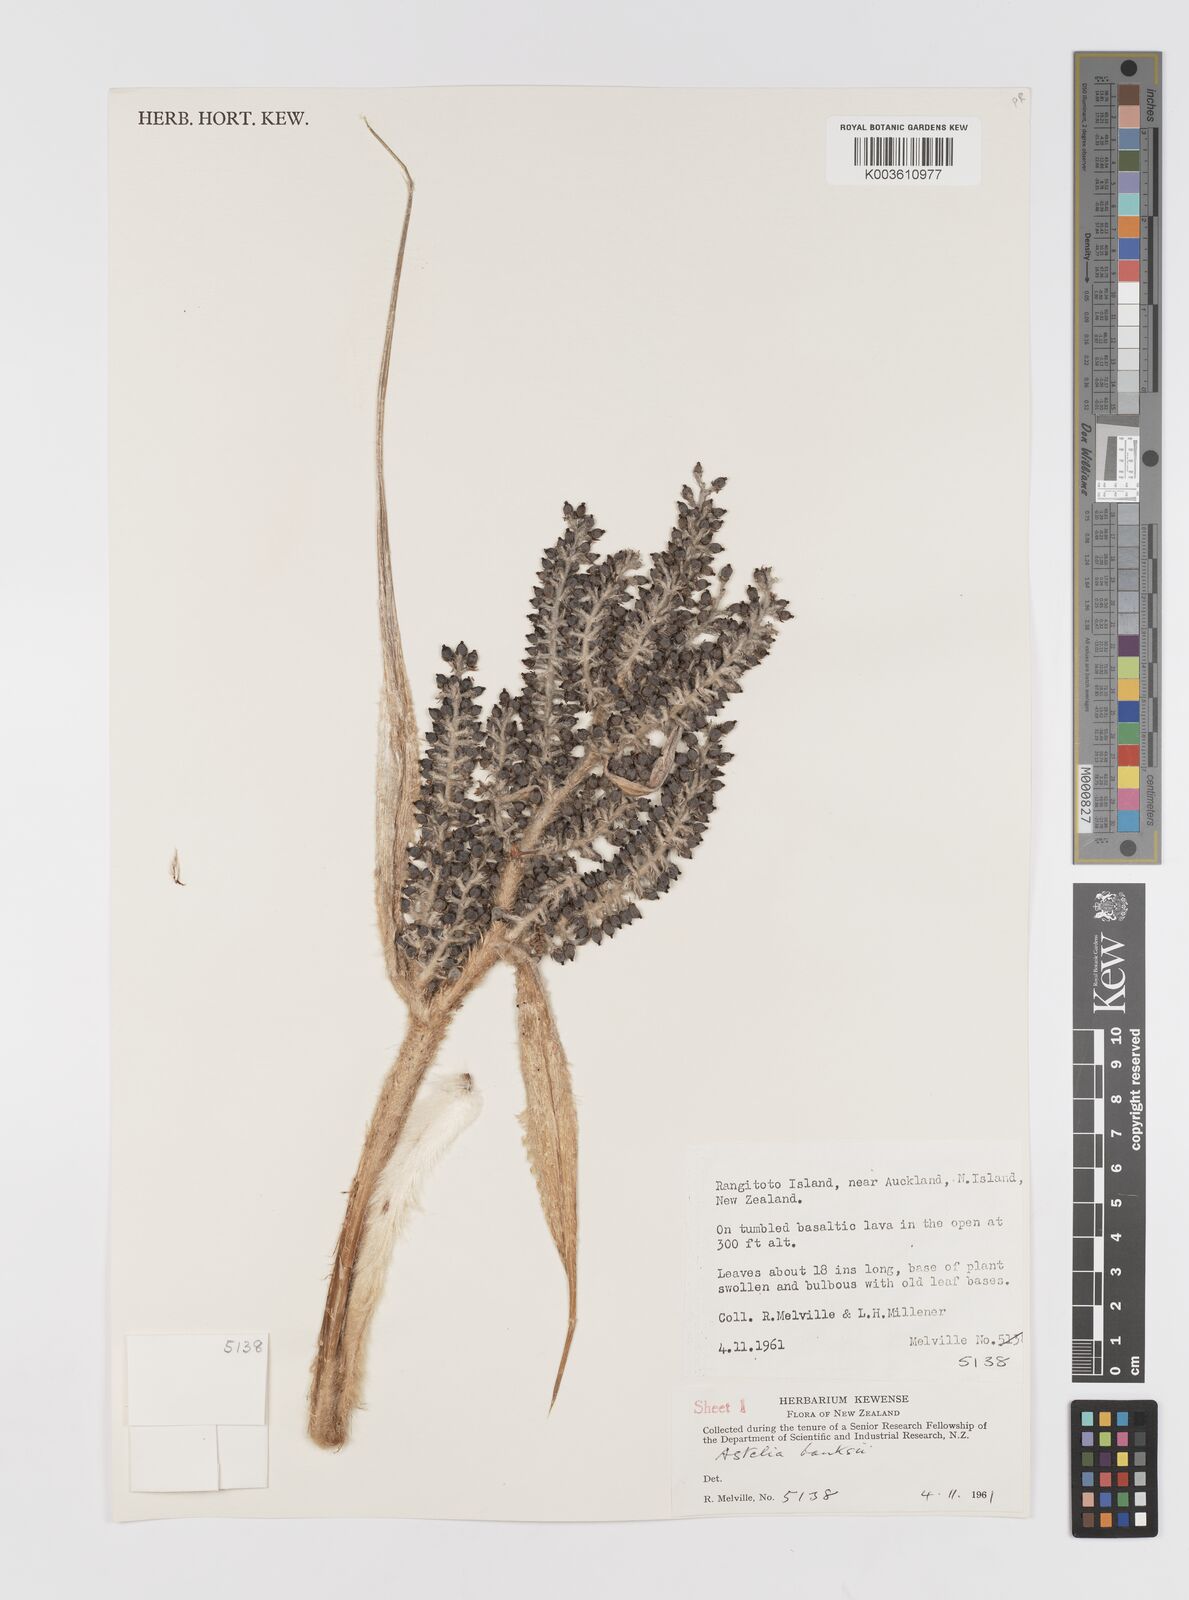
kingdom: Plantae
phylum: Tracheophyta
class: Liliopsida
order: Asparagales
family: Asteliaceae
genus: Astelia
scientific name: Astelia banksii
